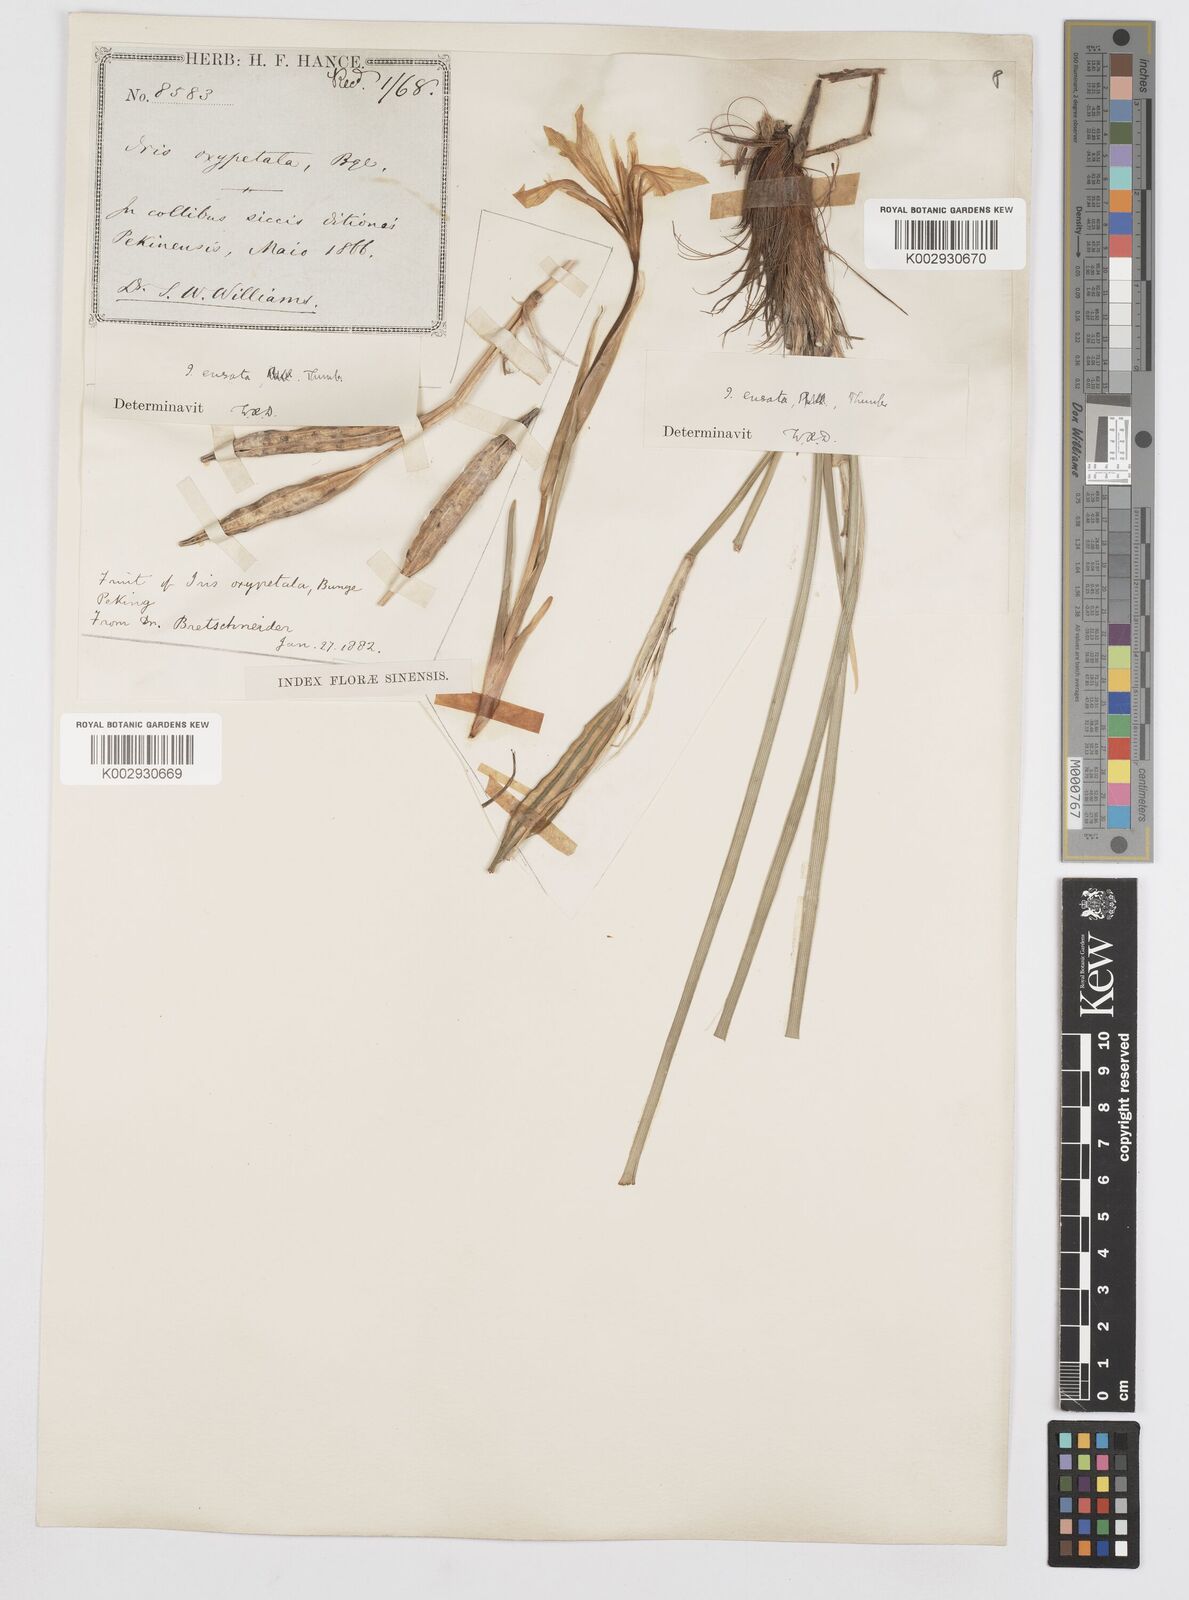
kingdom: Plantae
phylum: Tracheophyta
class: Liliopsida
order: Asparagales
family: Iridaceae
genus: Iris
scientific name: Iris ensata
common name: Beaked iris
